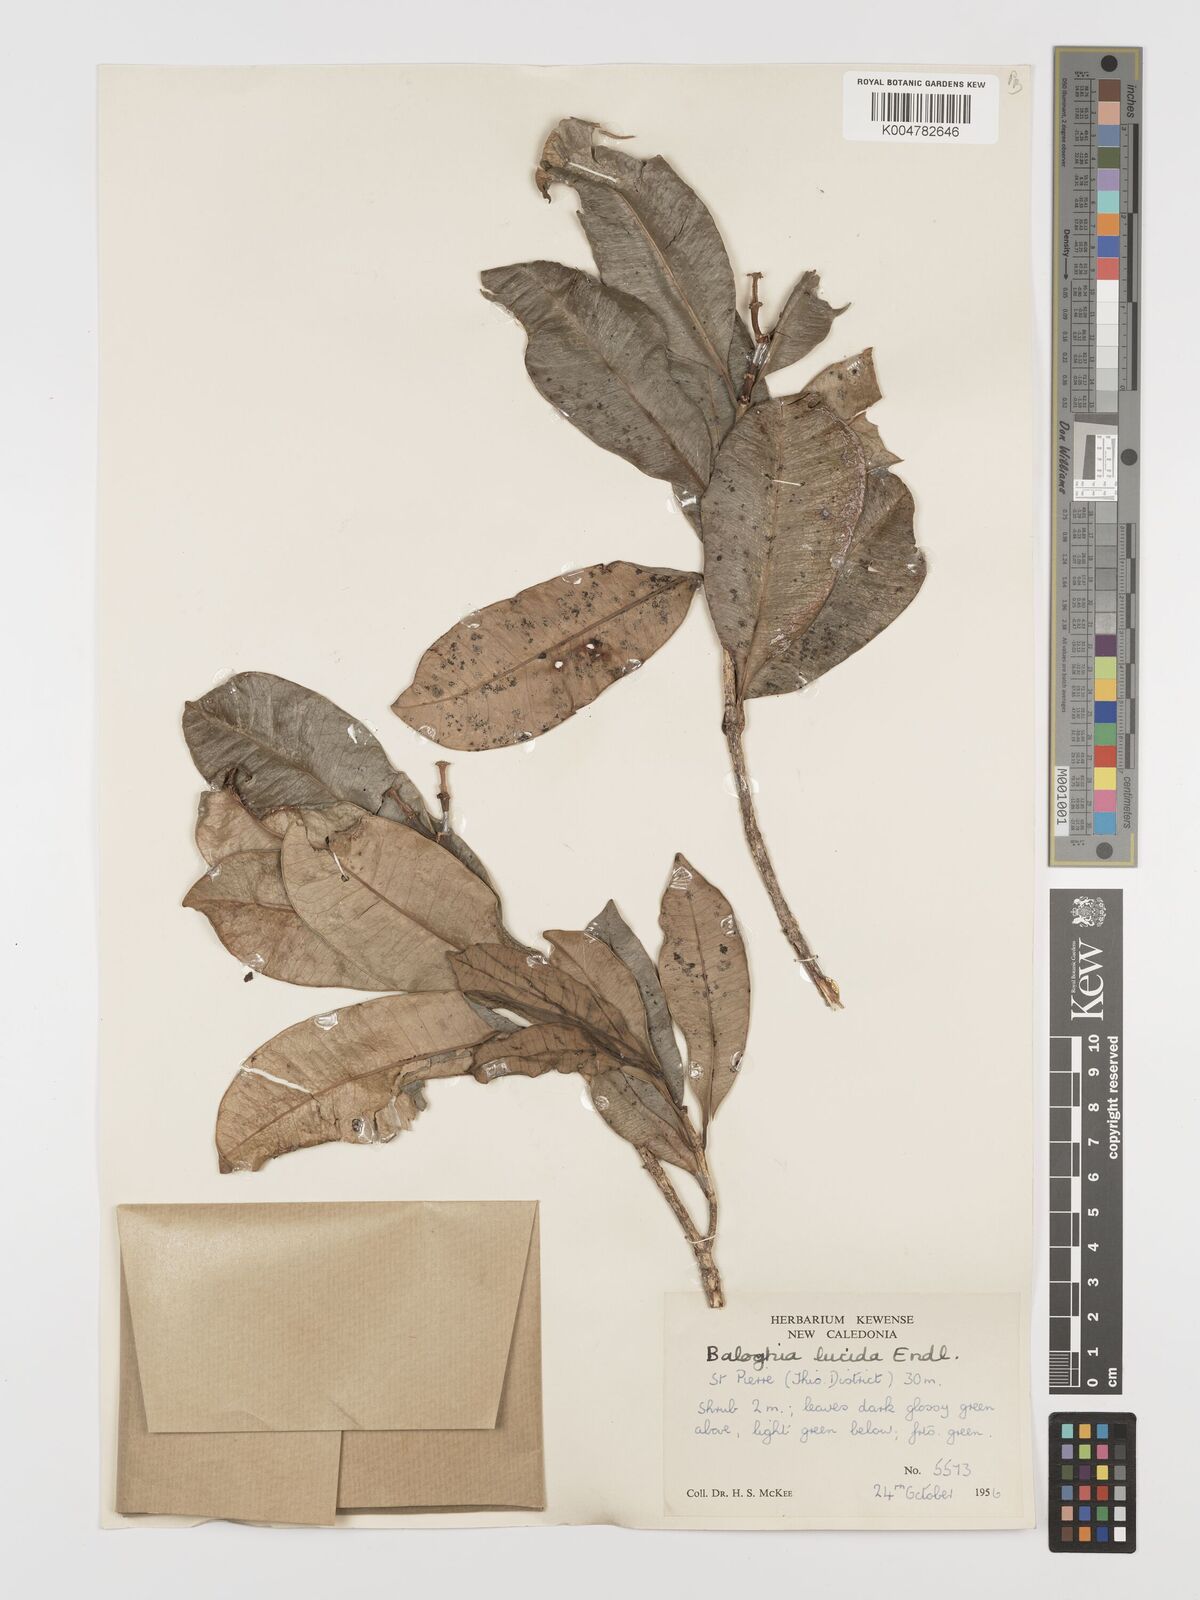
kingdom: Plantae
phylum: Tracheophyta
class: Magnoliopsida
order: Malpighiales
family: Euphorbiaceae
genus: Baloghia
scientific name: Baloghia inophylla
